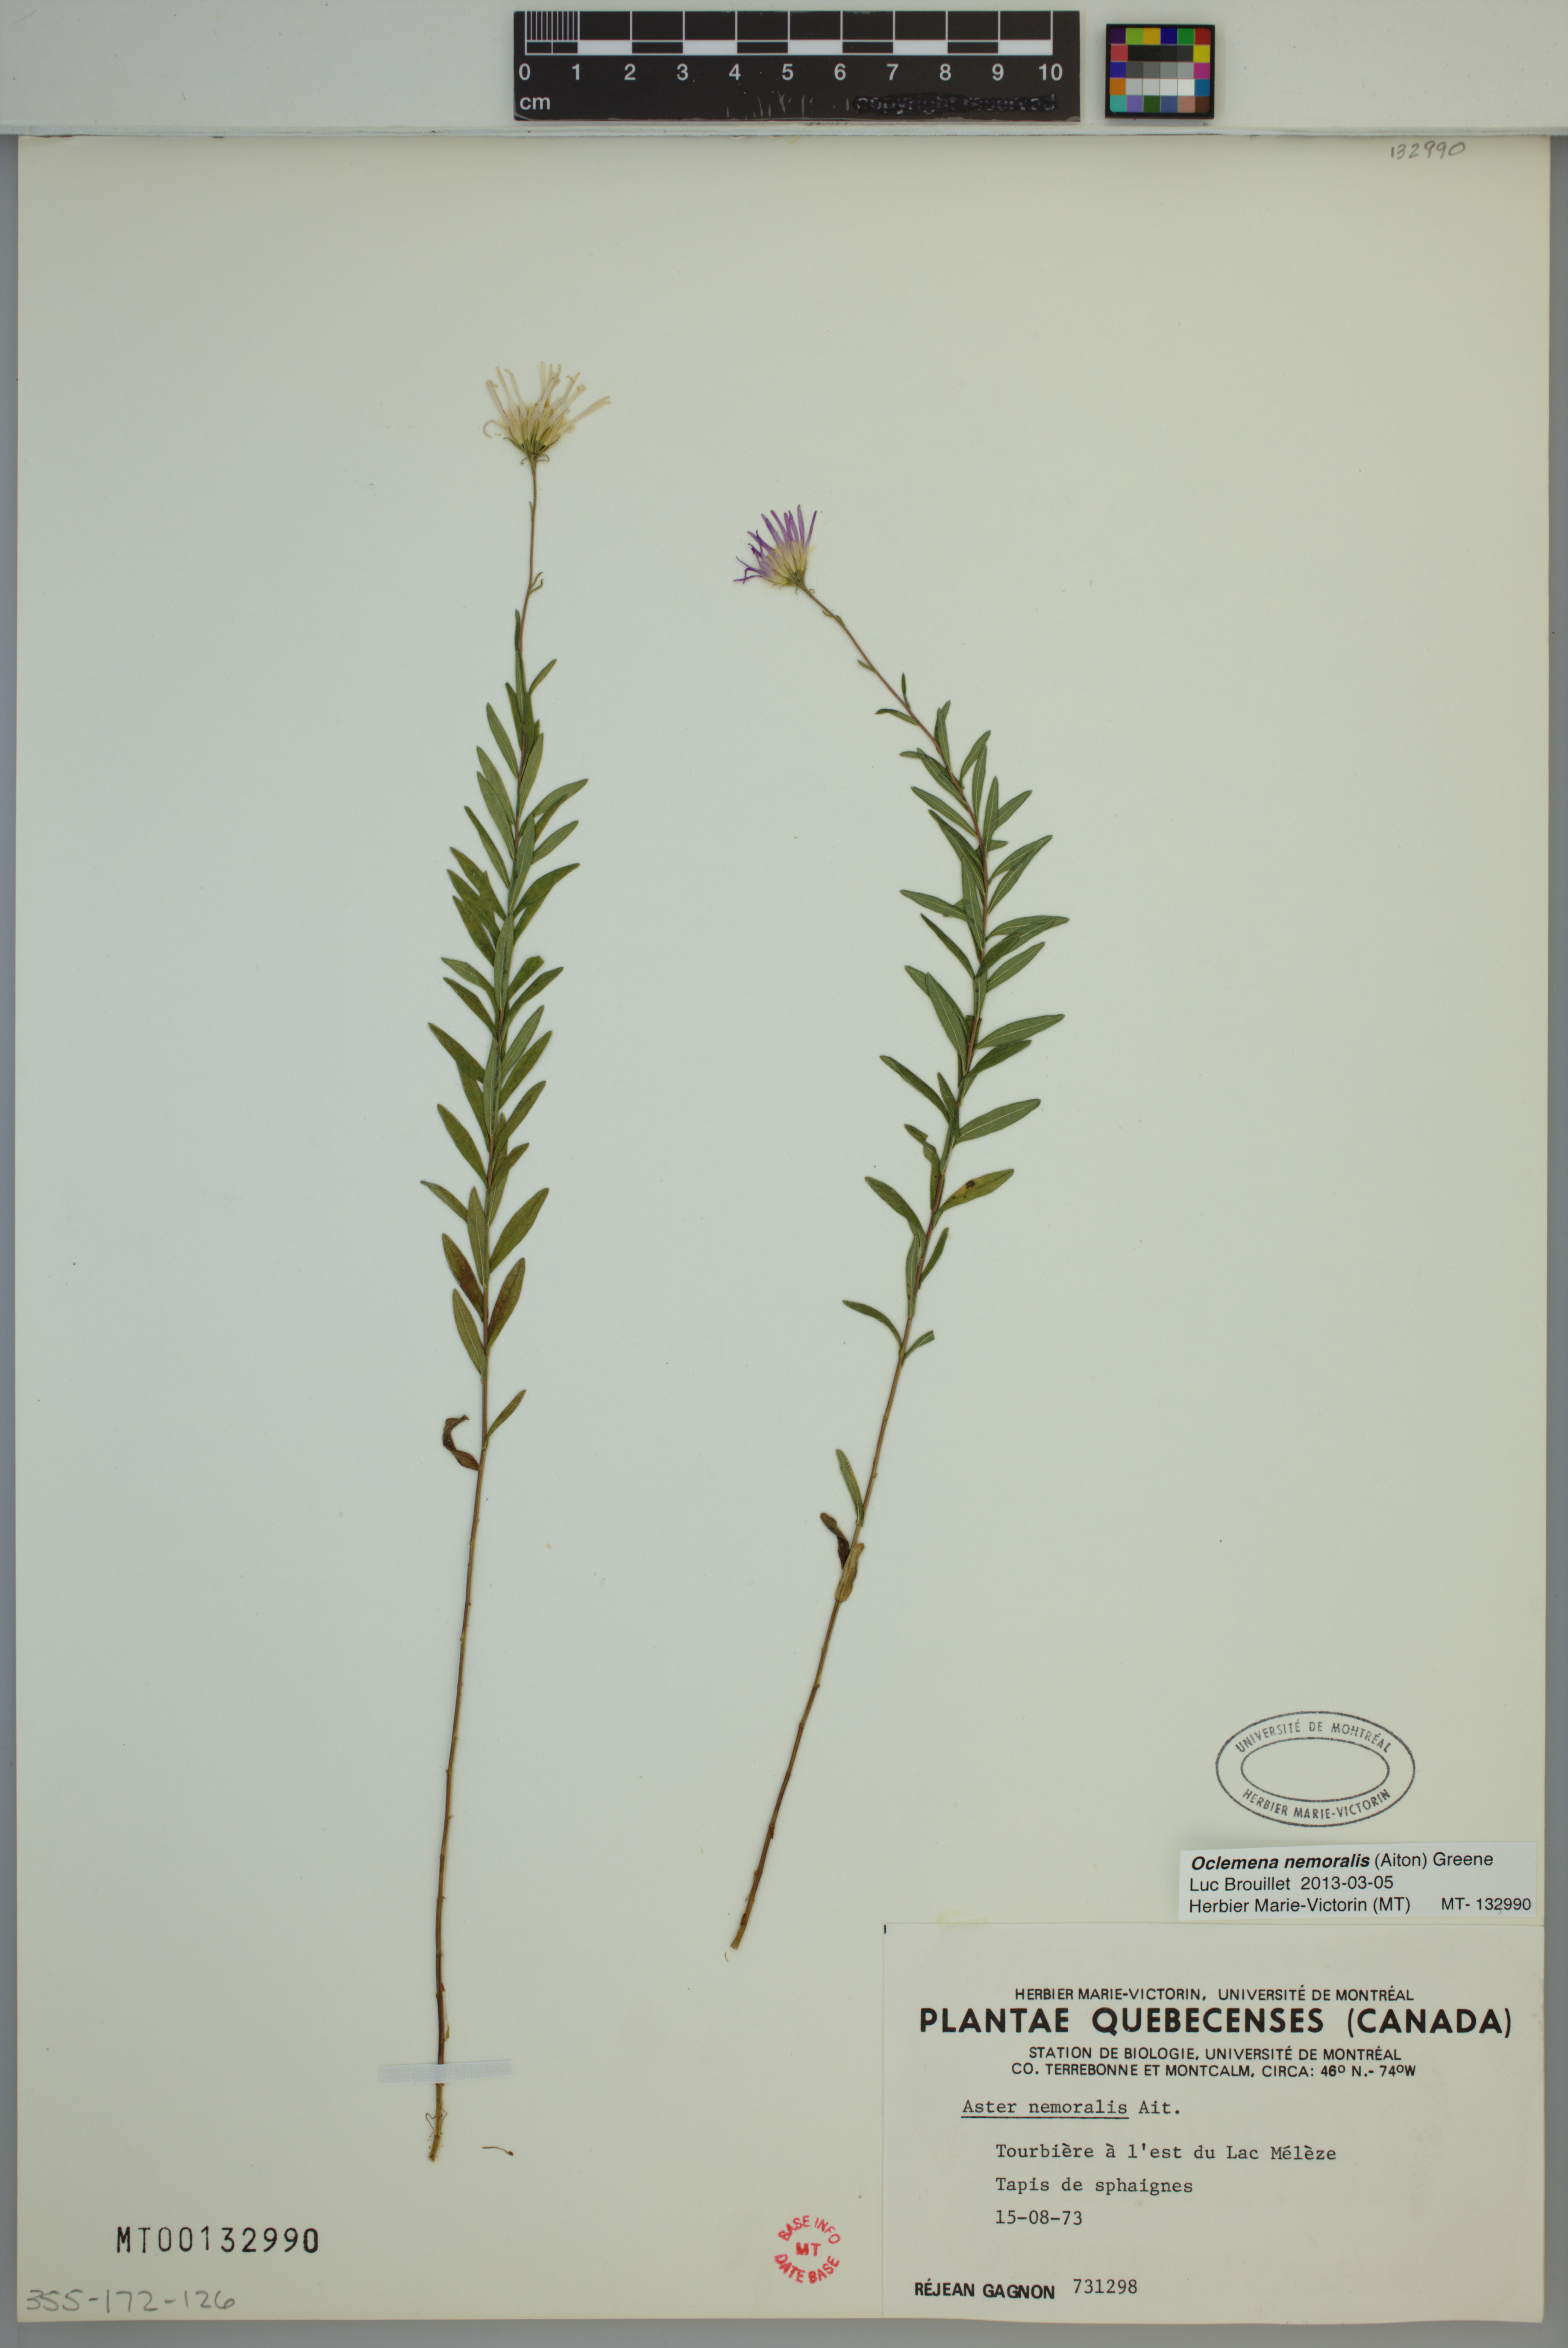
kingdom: Plantae
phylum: Tracheophyta
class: Magnoliopsida
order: Asterales
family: Asteraceae
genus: Oclemena
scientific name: Oclemena nemoralis
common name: Bog aster
